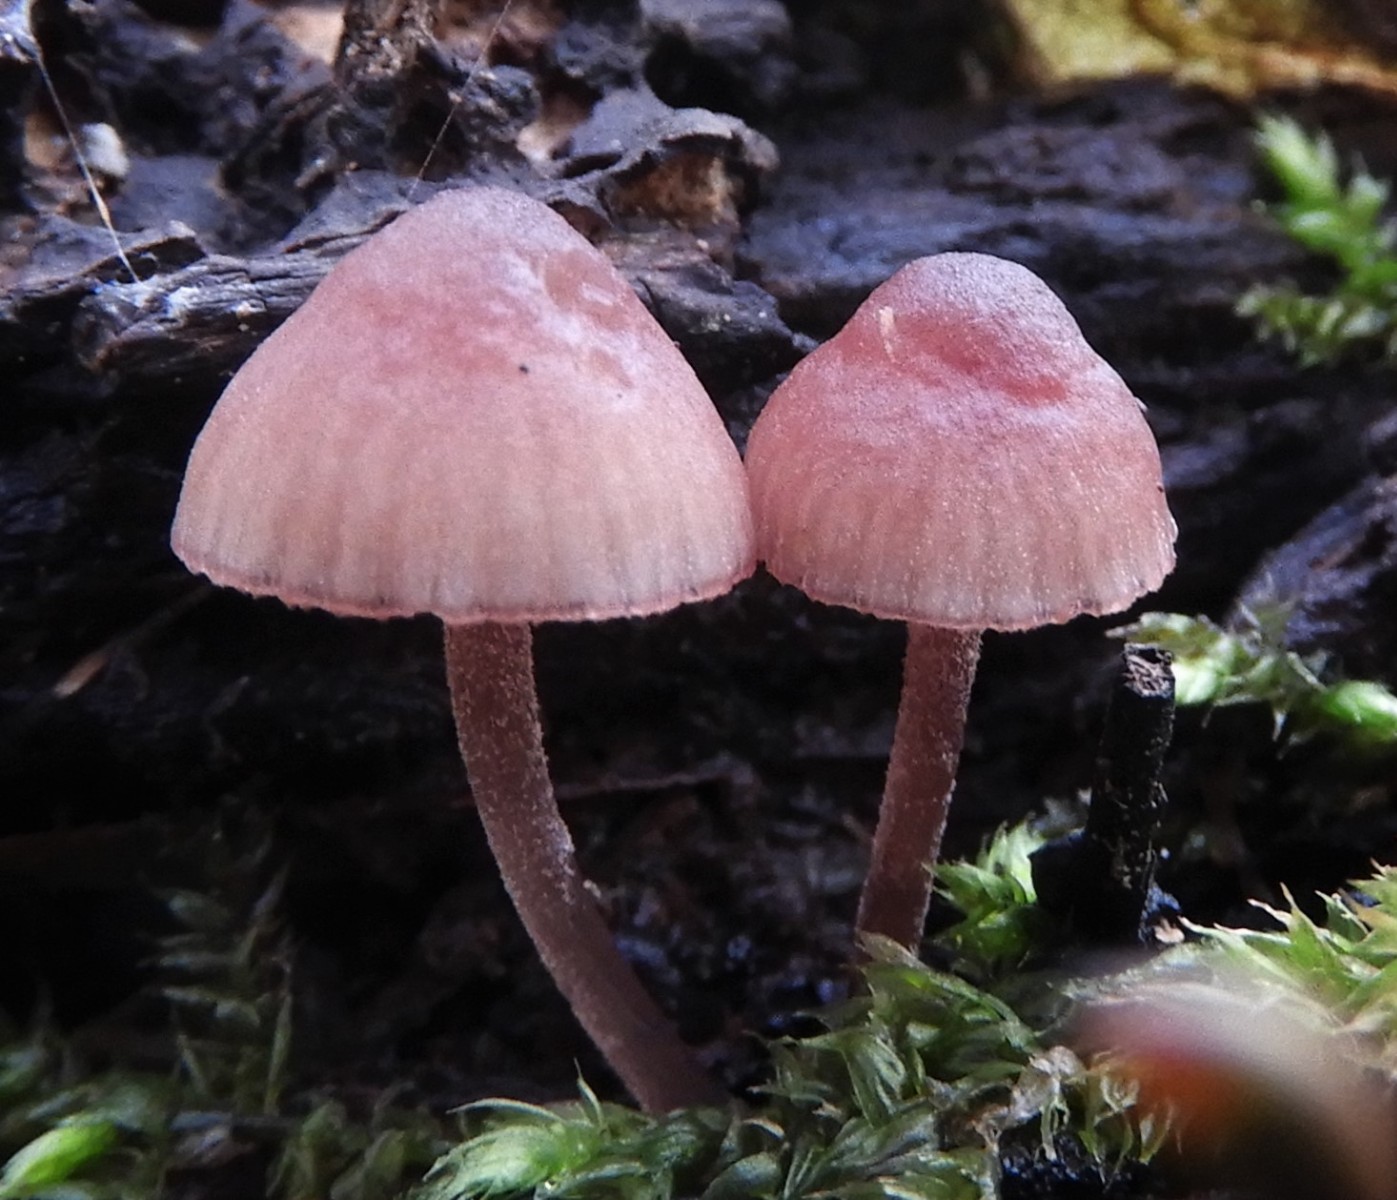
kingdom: Fungi
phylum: Basidiomycota
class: Agaricomycetes
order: Agaricales
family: Mycenaceae
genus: Mycena
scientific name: Mycena sanguinolenta
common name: rødmælket huesvamp
